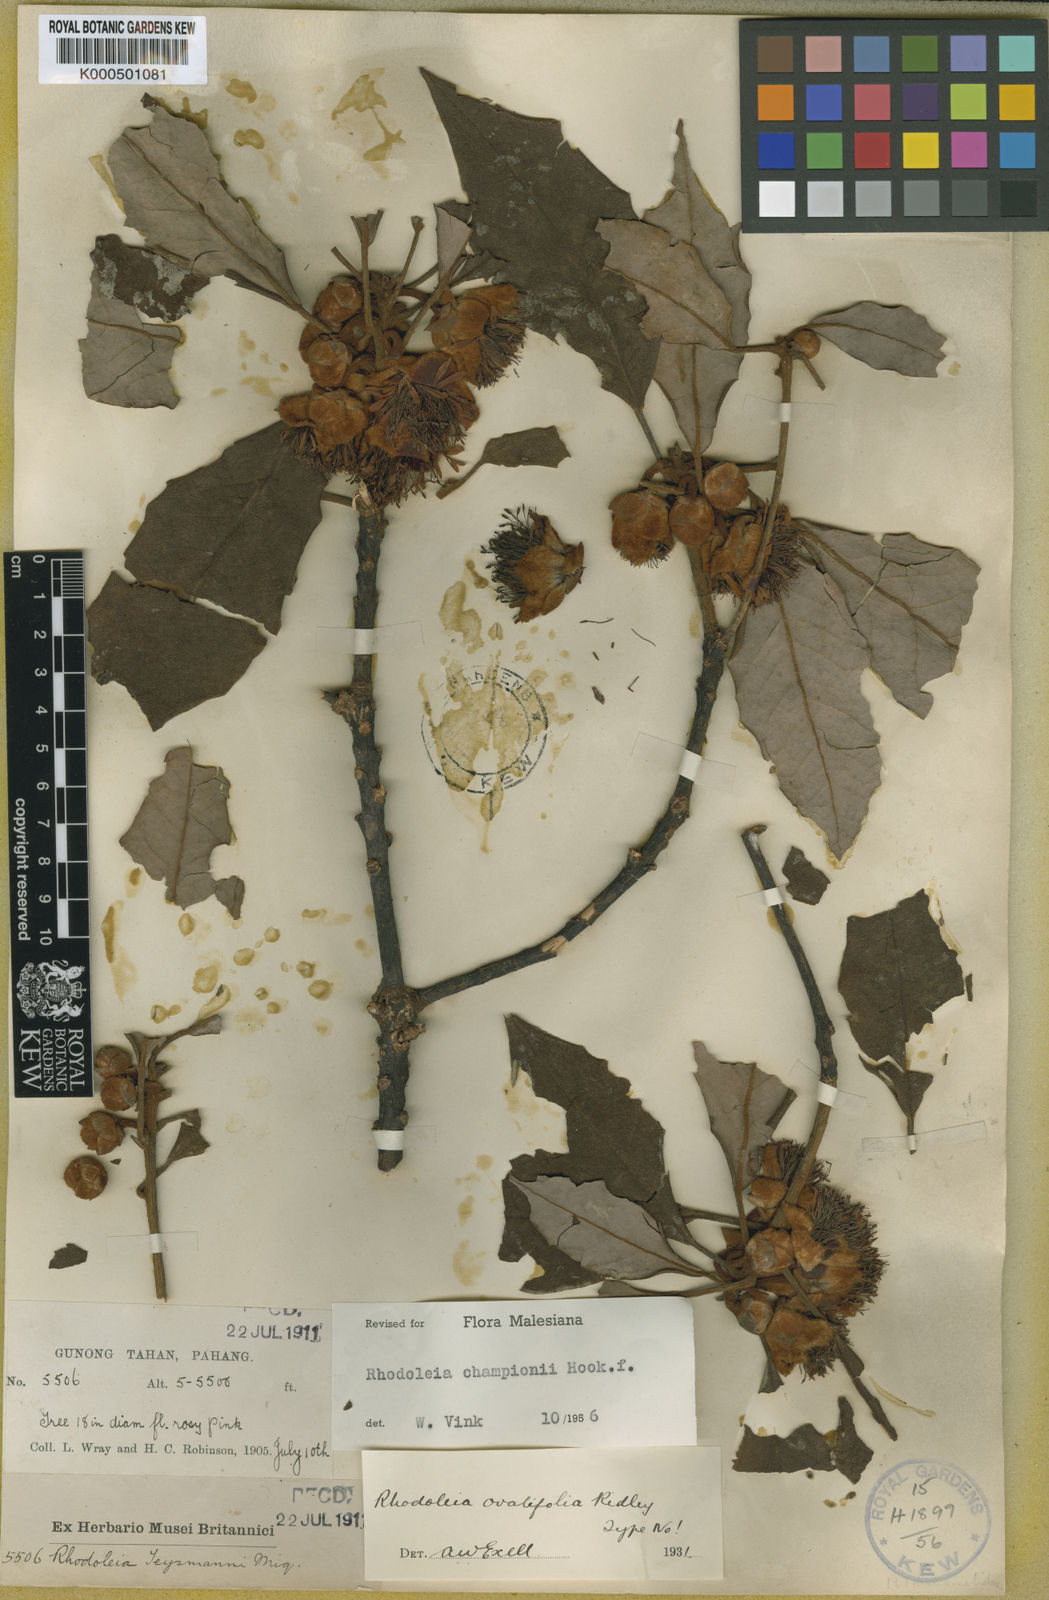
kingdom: Plantae
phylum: Tracheophyta
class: Magnoliopsida
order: Saxifragales
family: Hamamelidaceae
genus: Rhodoleia
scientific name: Rhodoleia championii
